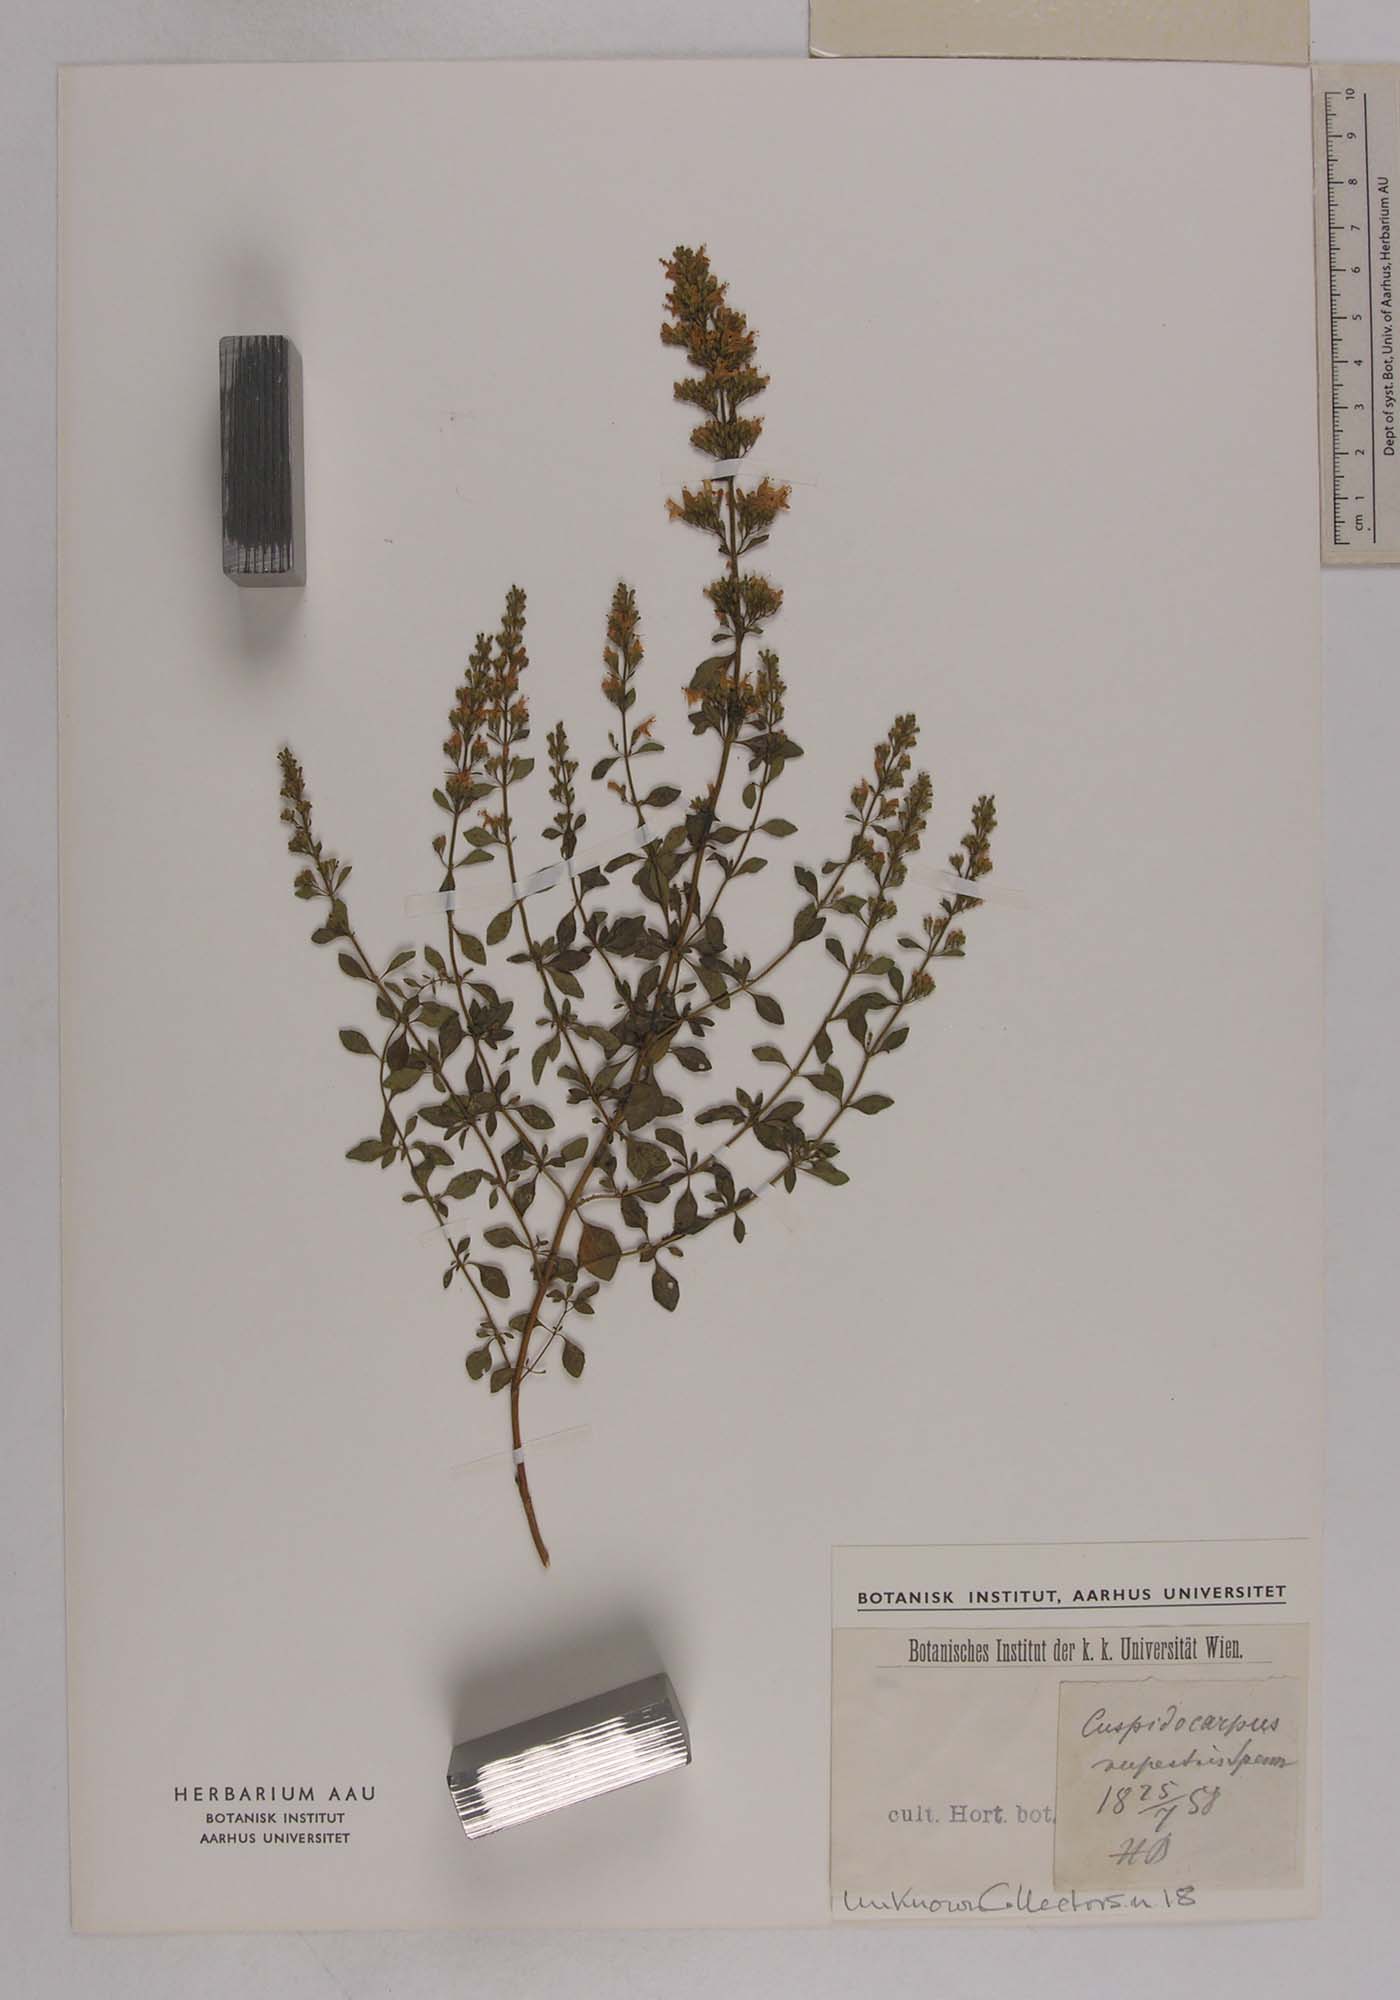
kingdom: Plantae
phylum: Tracheophyta
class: Magnoliopsida
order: Lamiales
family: Lamiaceae
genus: Clinopodium
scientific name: Clinopodium album
